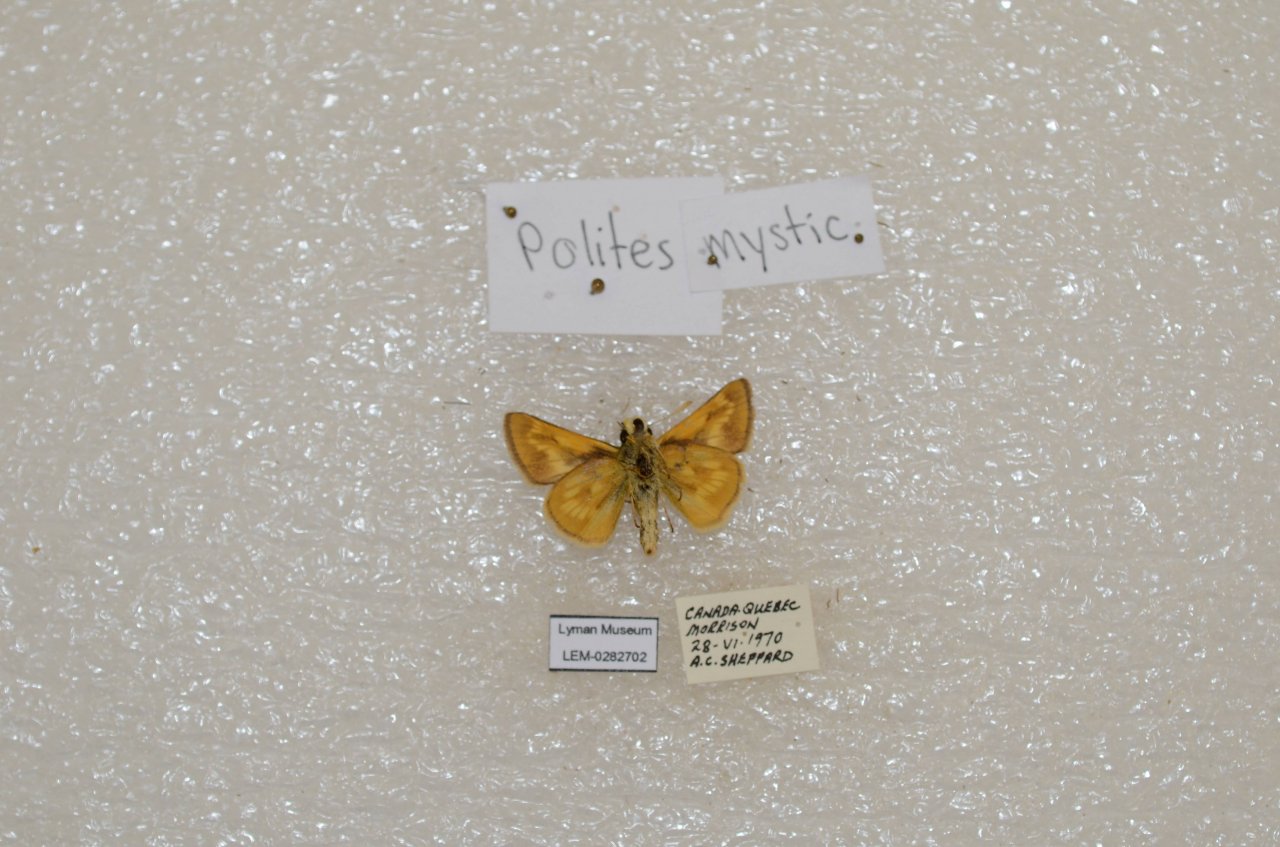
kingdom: Animalia
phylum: Arthropoda
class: Insecta
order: Lepidoptera
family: Hesperiidae
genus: Polites
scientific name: Polites
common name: Long Dash Skipper
